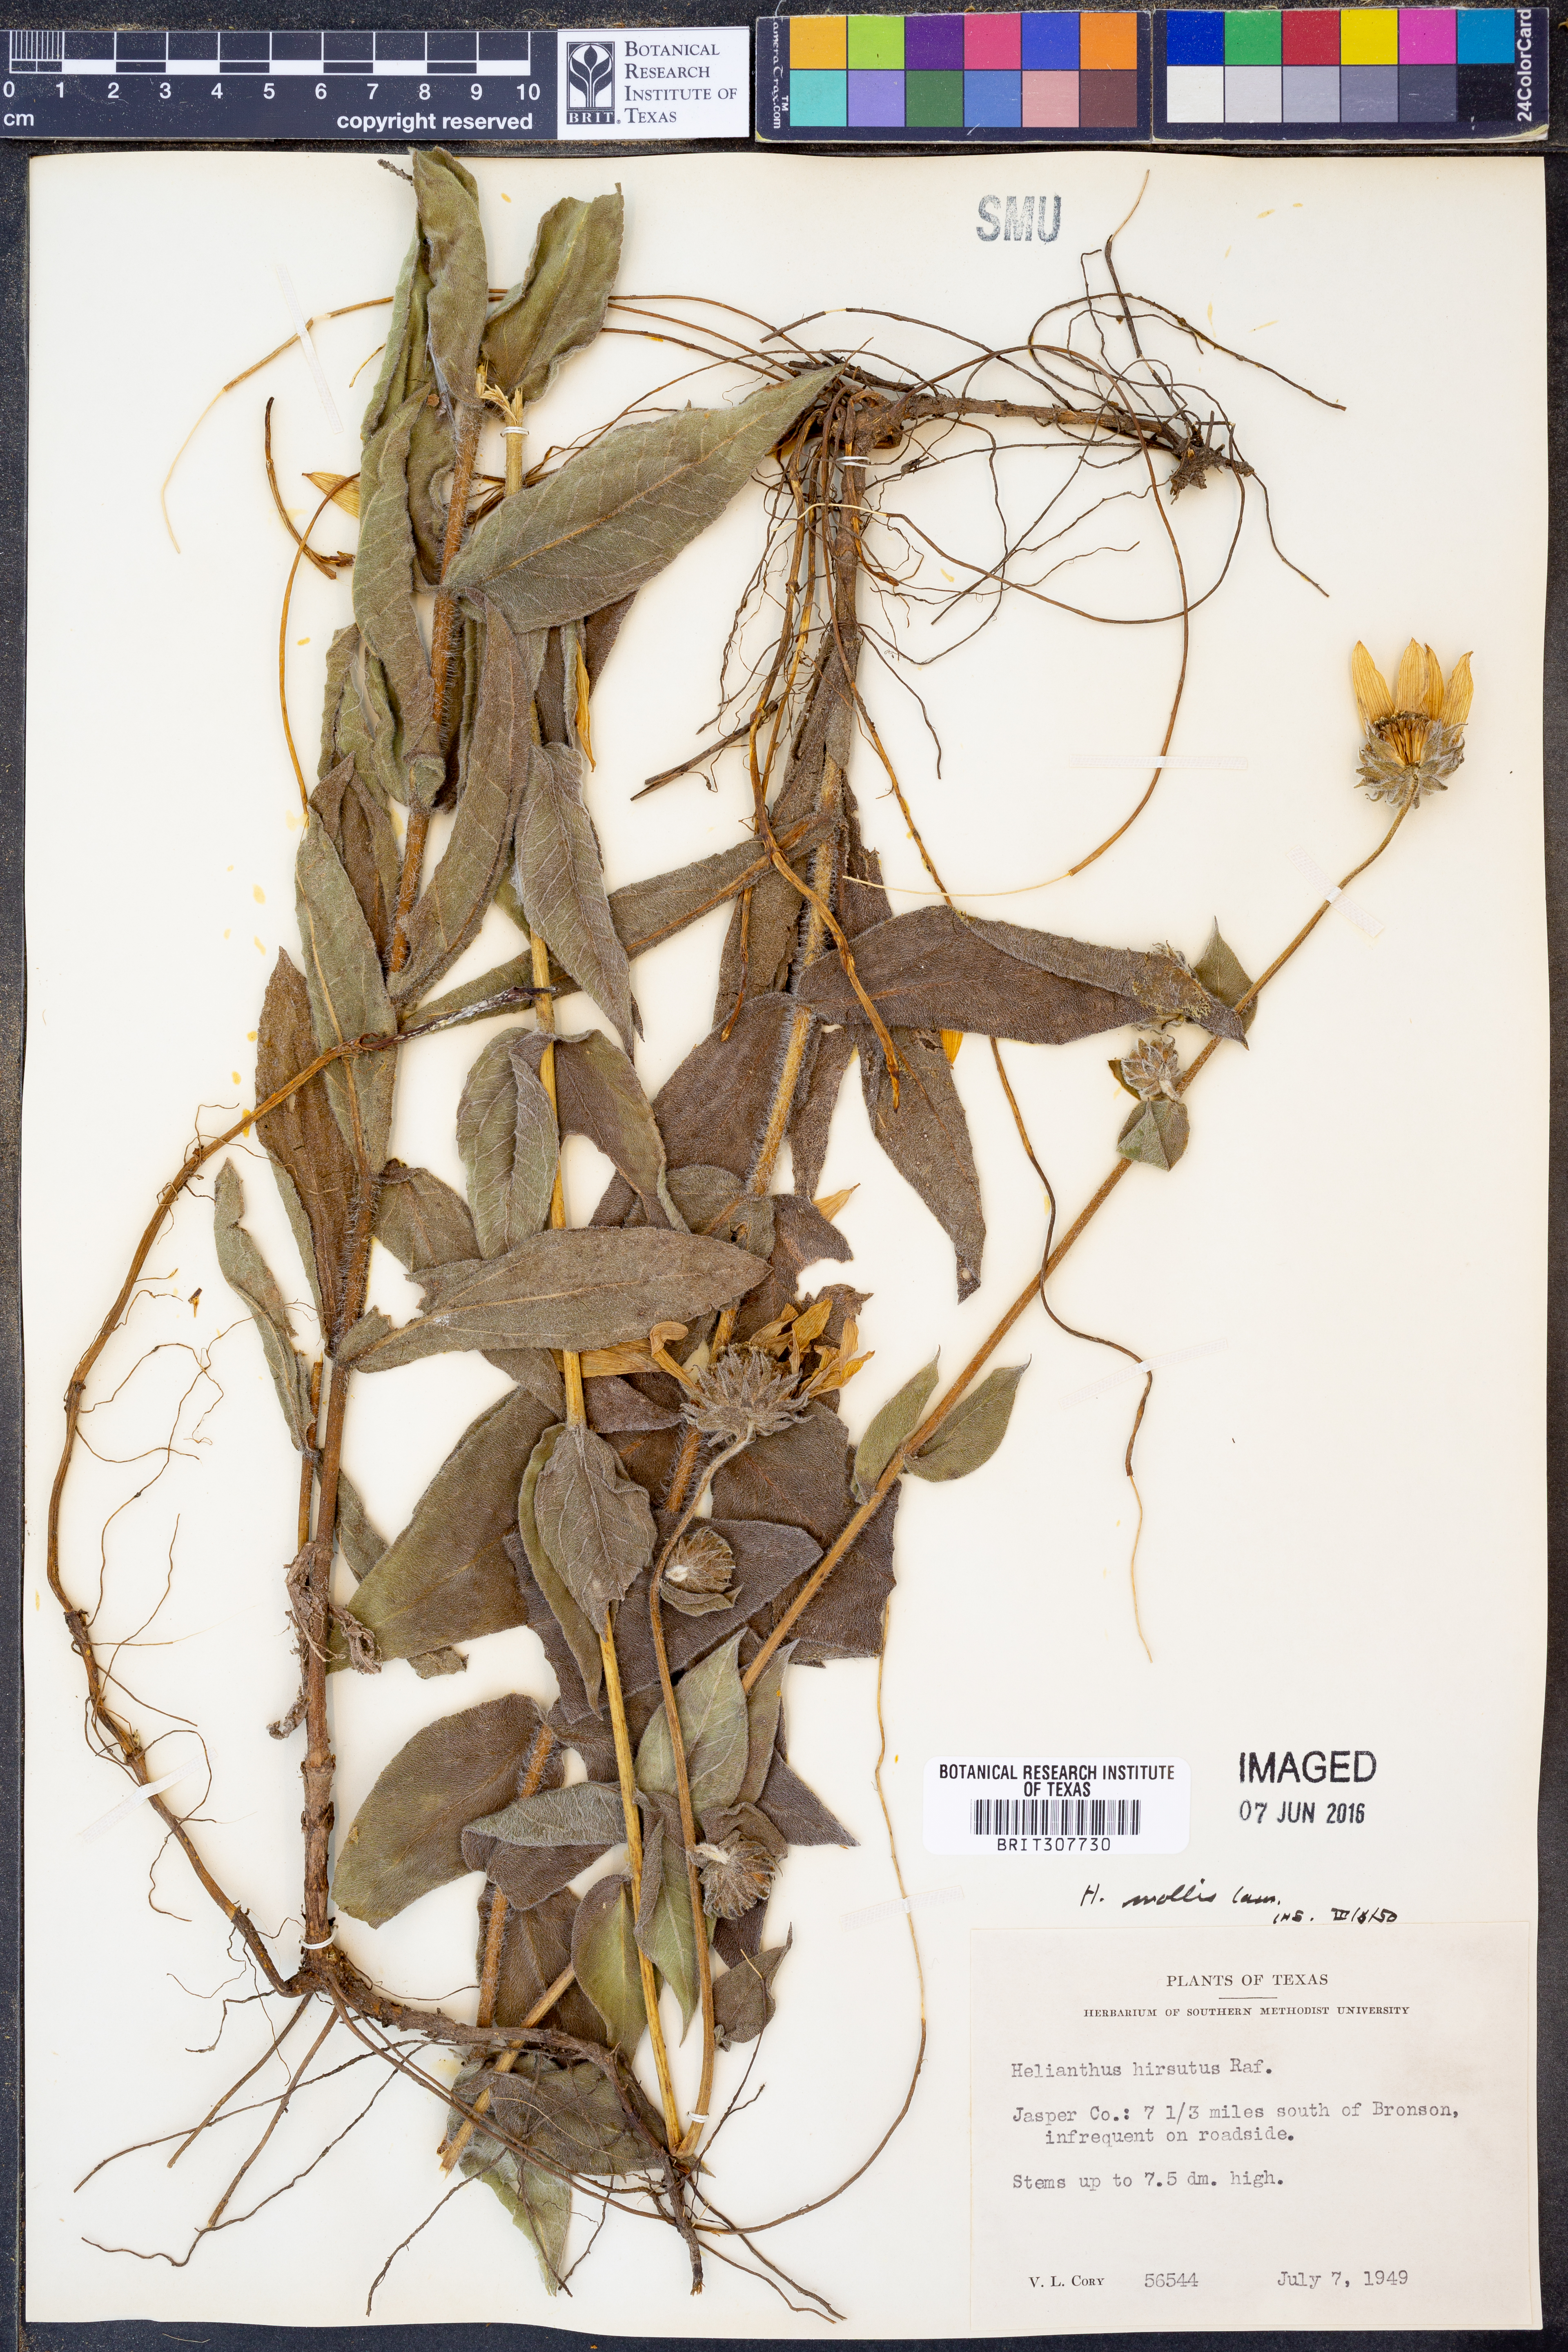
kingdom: Plantae
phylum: Tracheophyta
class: Magnoliopsida
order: Asterales
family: Asteraceae
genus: Helianthus
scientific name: Helianthus mollis
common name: Ashy sunflower
